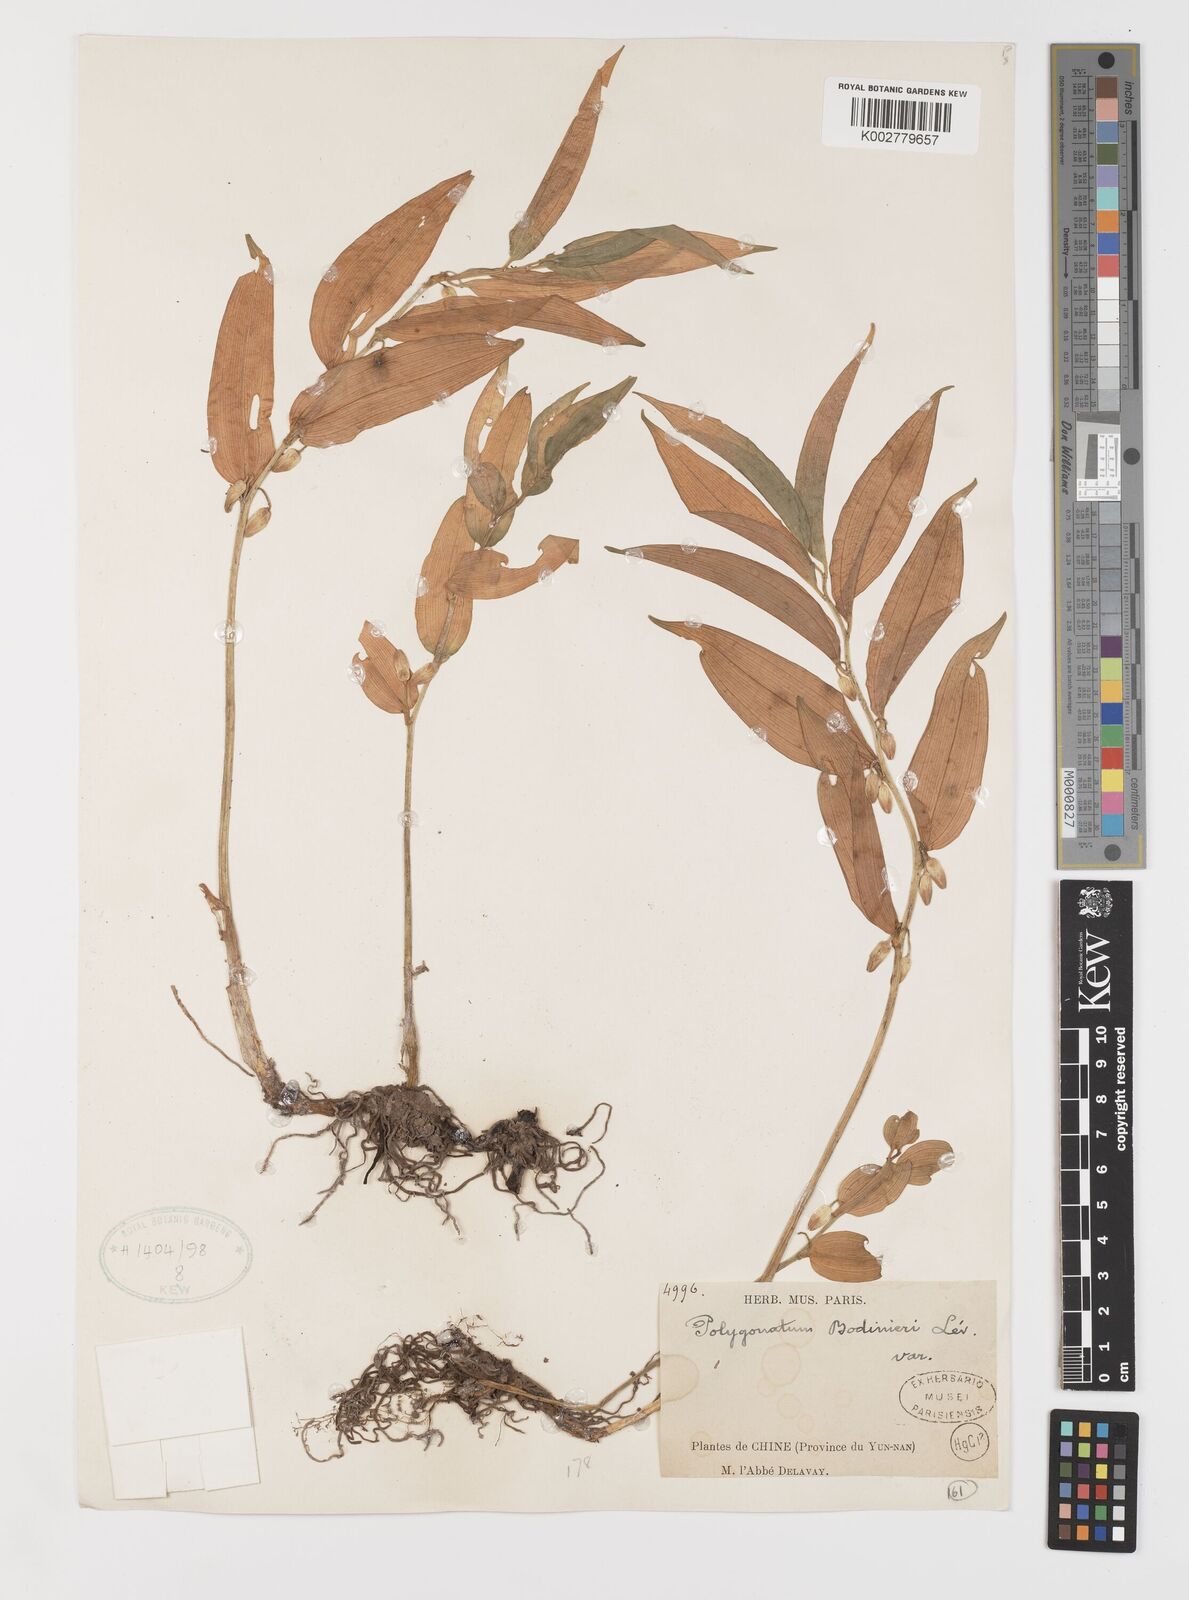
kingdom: Plantae
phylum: Tracheophyta
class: Liliopsida
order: Liliales
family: Colchicaceae
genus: Disporum
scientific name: Disporum bodinieri
